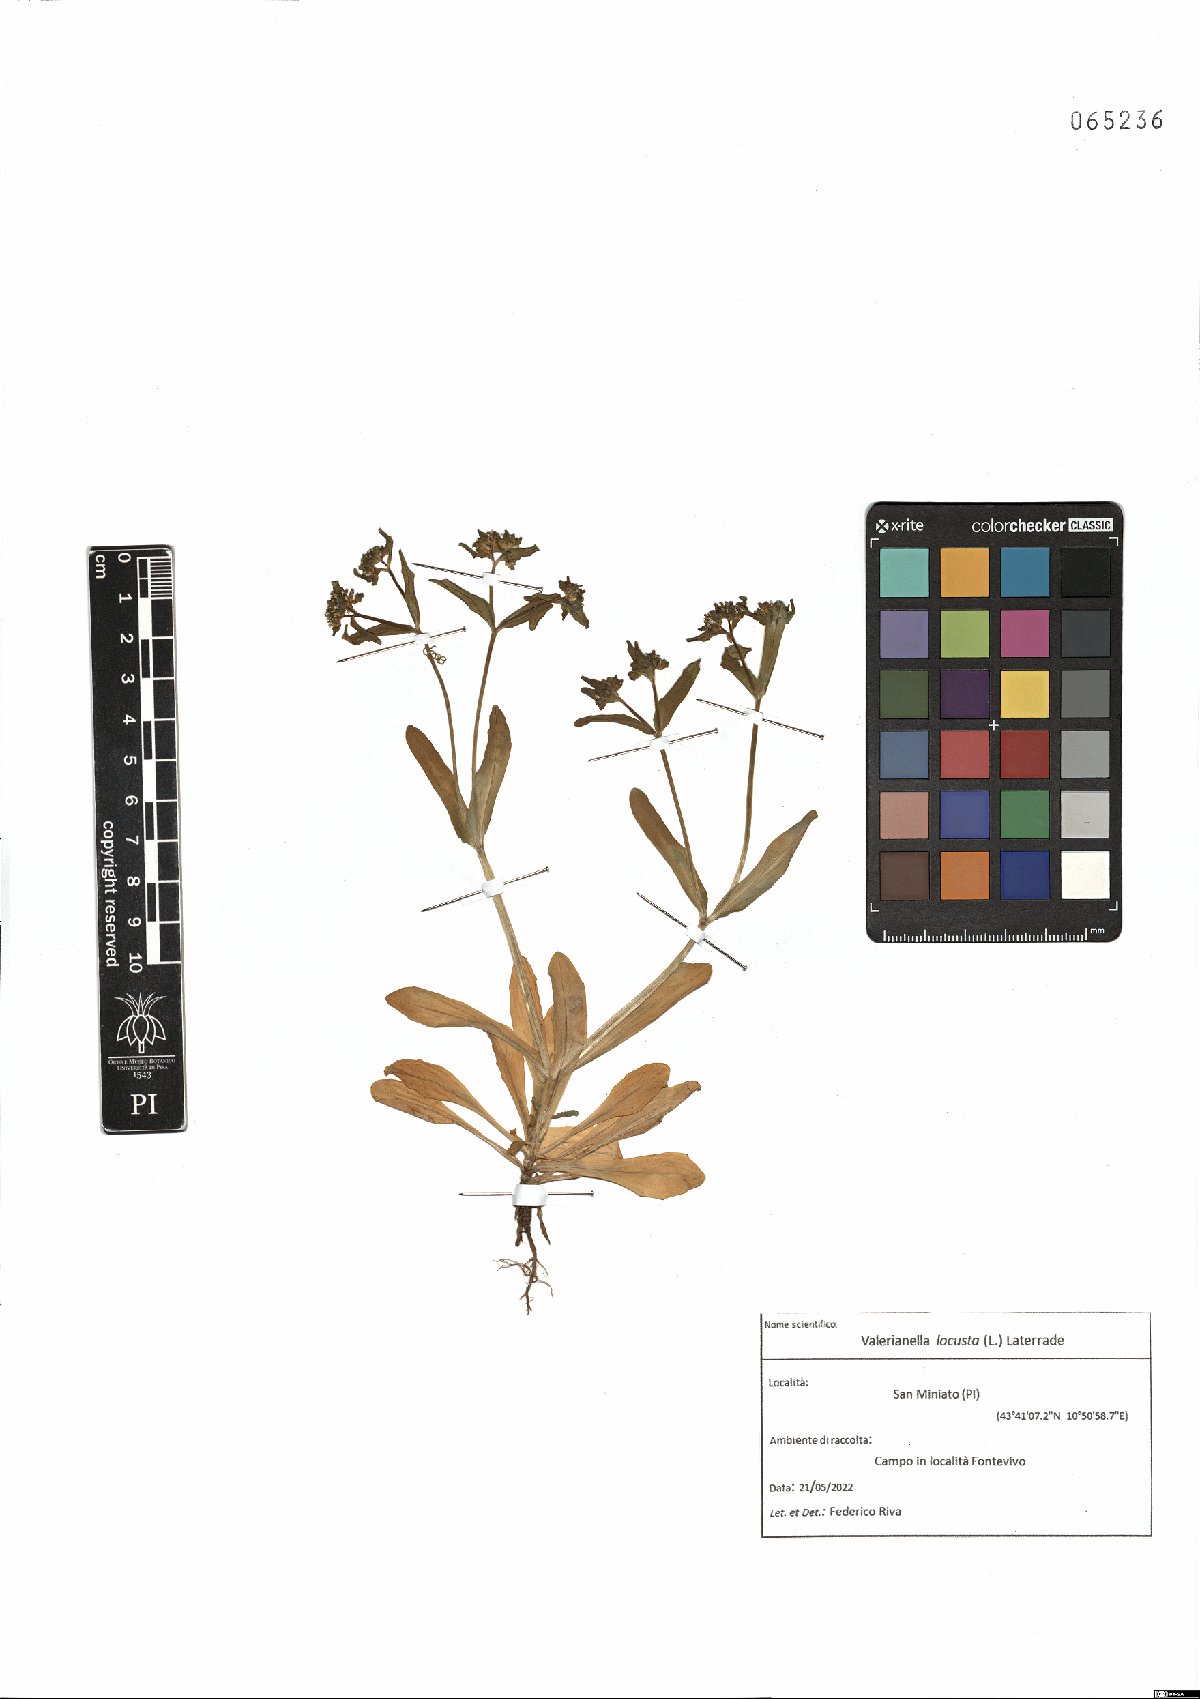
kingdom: Plantae
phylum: Tracheophyta
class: Magnoliopsida
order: Dipsacales
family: Caprifoliaceae
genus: Valerianella
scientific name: Valerianella locusta
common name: Common cornsalad
